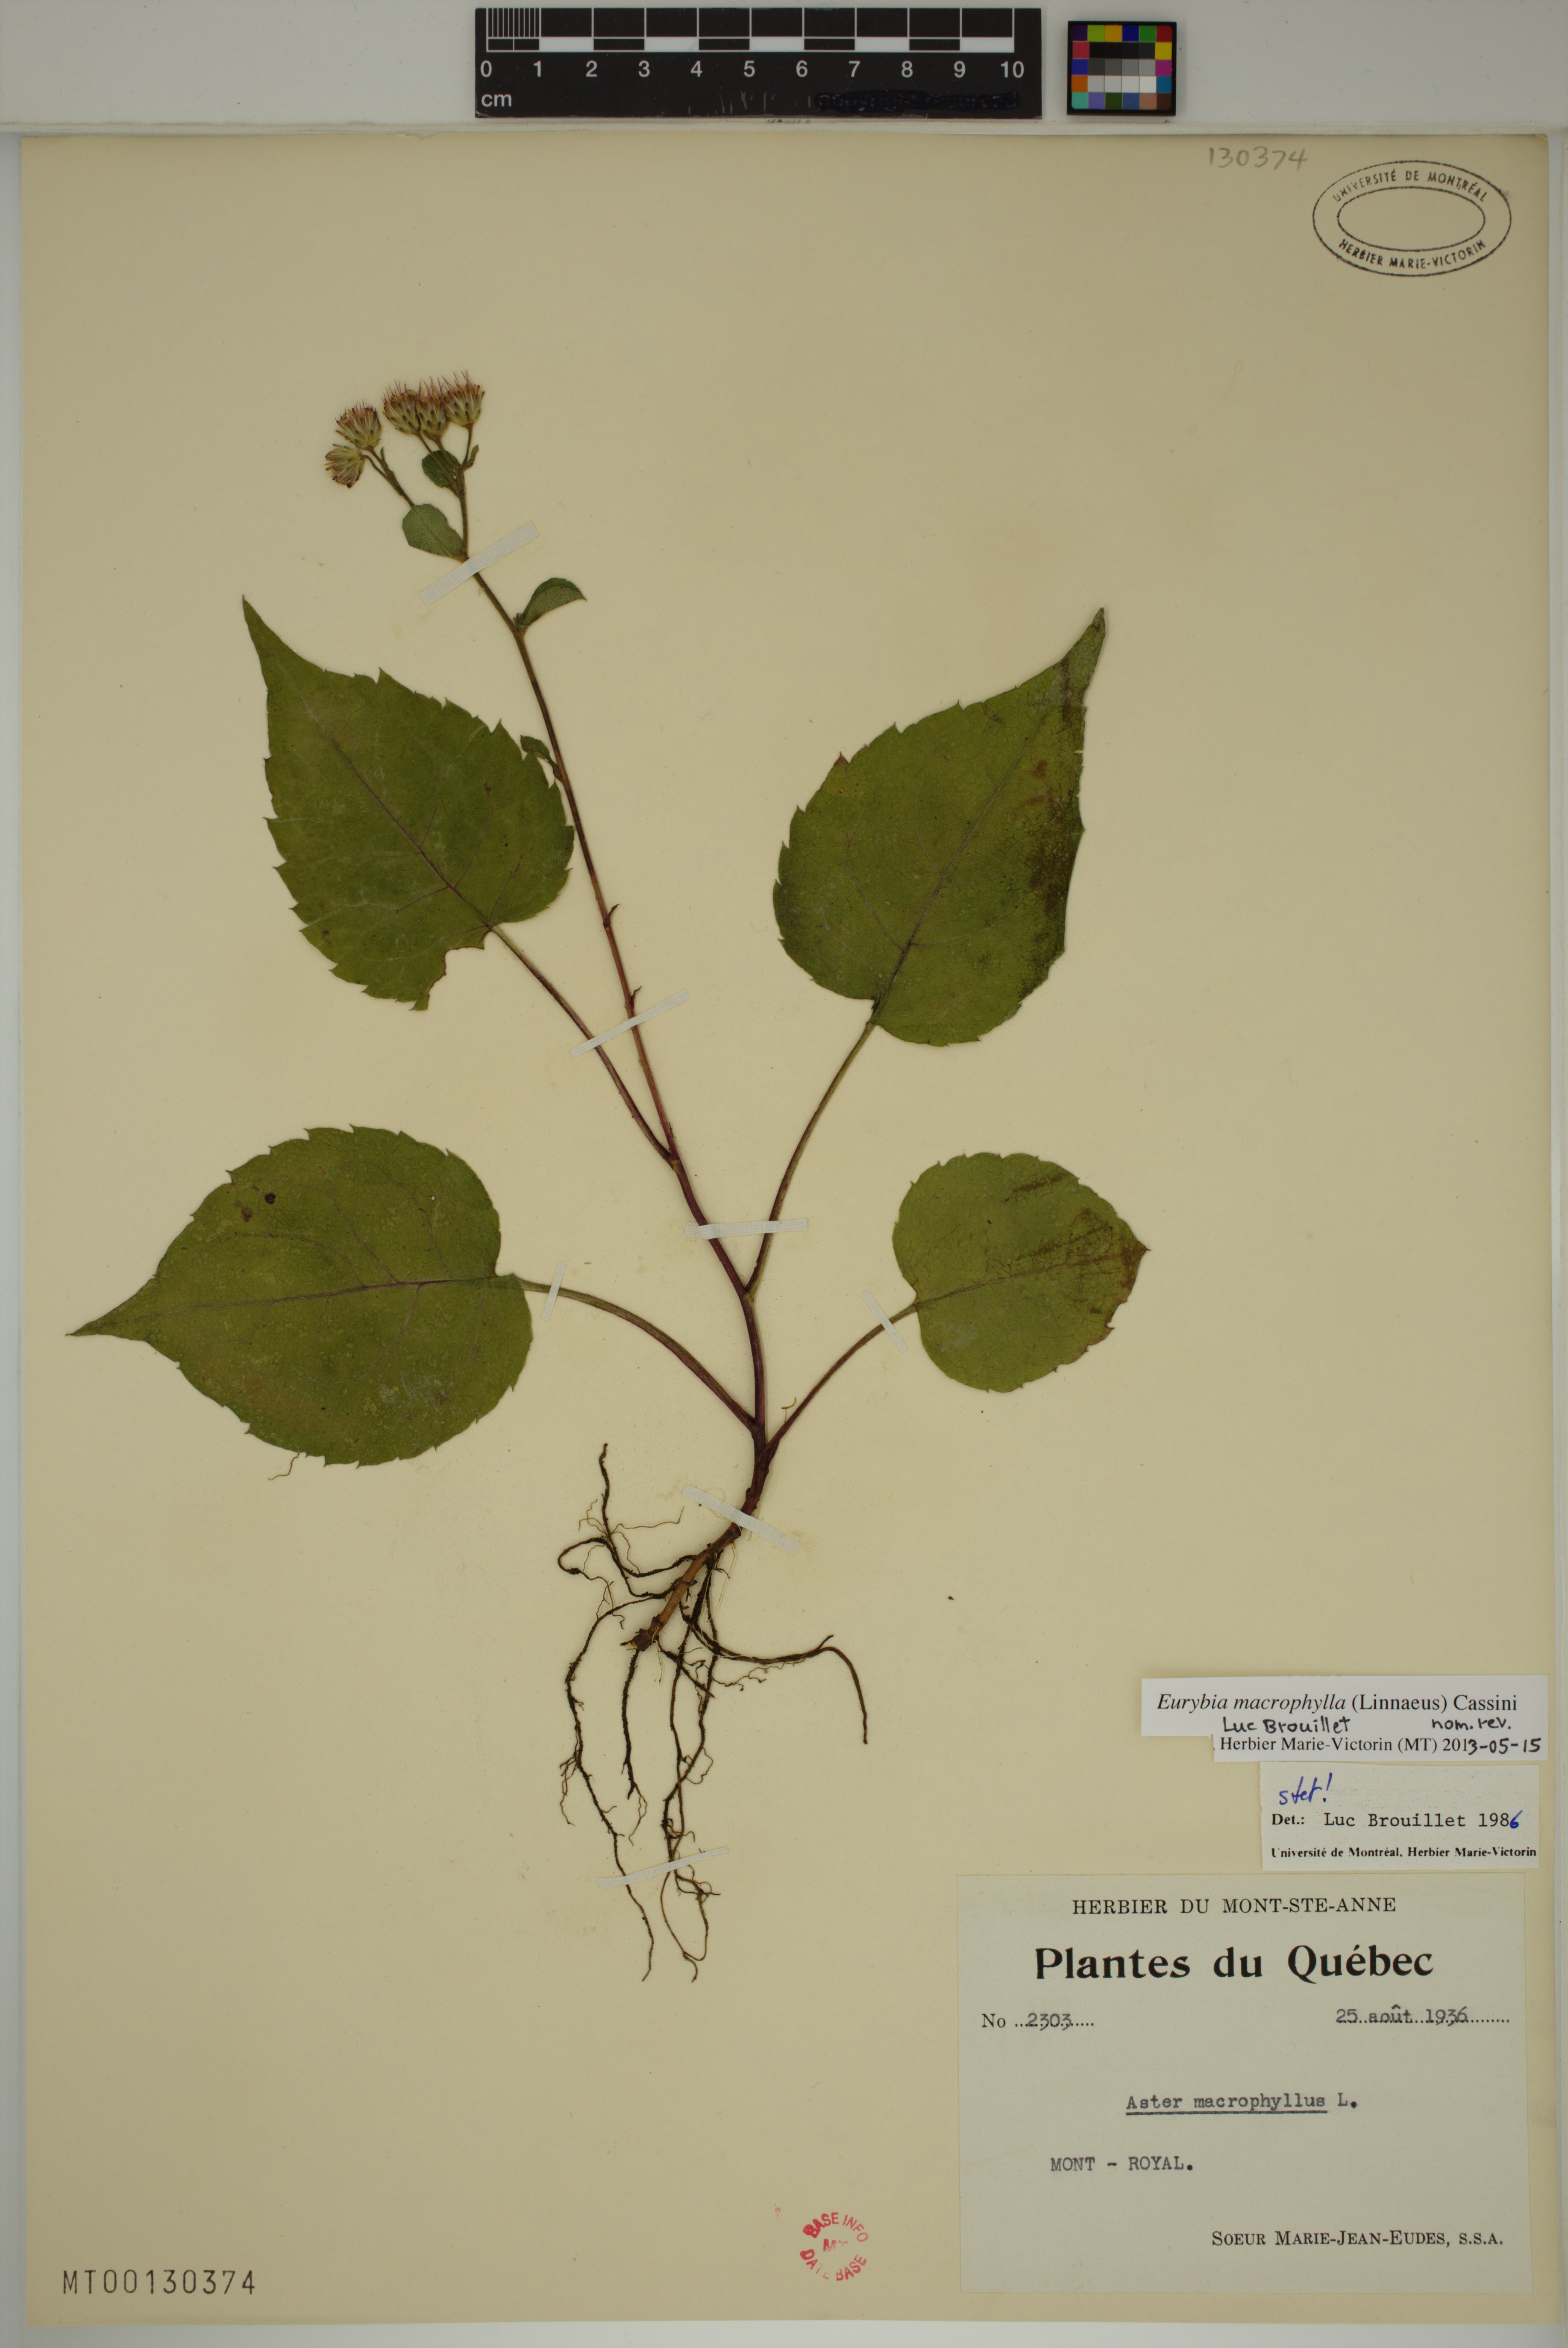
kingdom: Plantae
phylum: Tracheophyta
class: Magnoliopsida
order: Asterales
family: Asteraceae
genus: Eurybia
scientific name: Eurybia macrophylla
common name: Big-leaved aster
